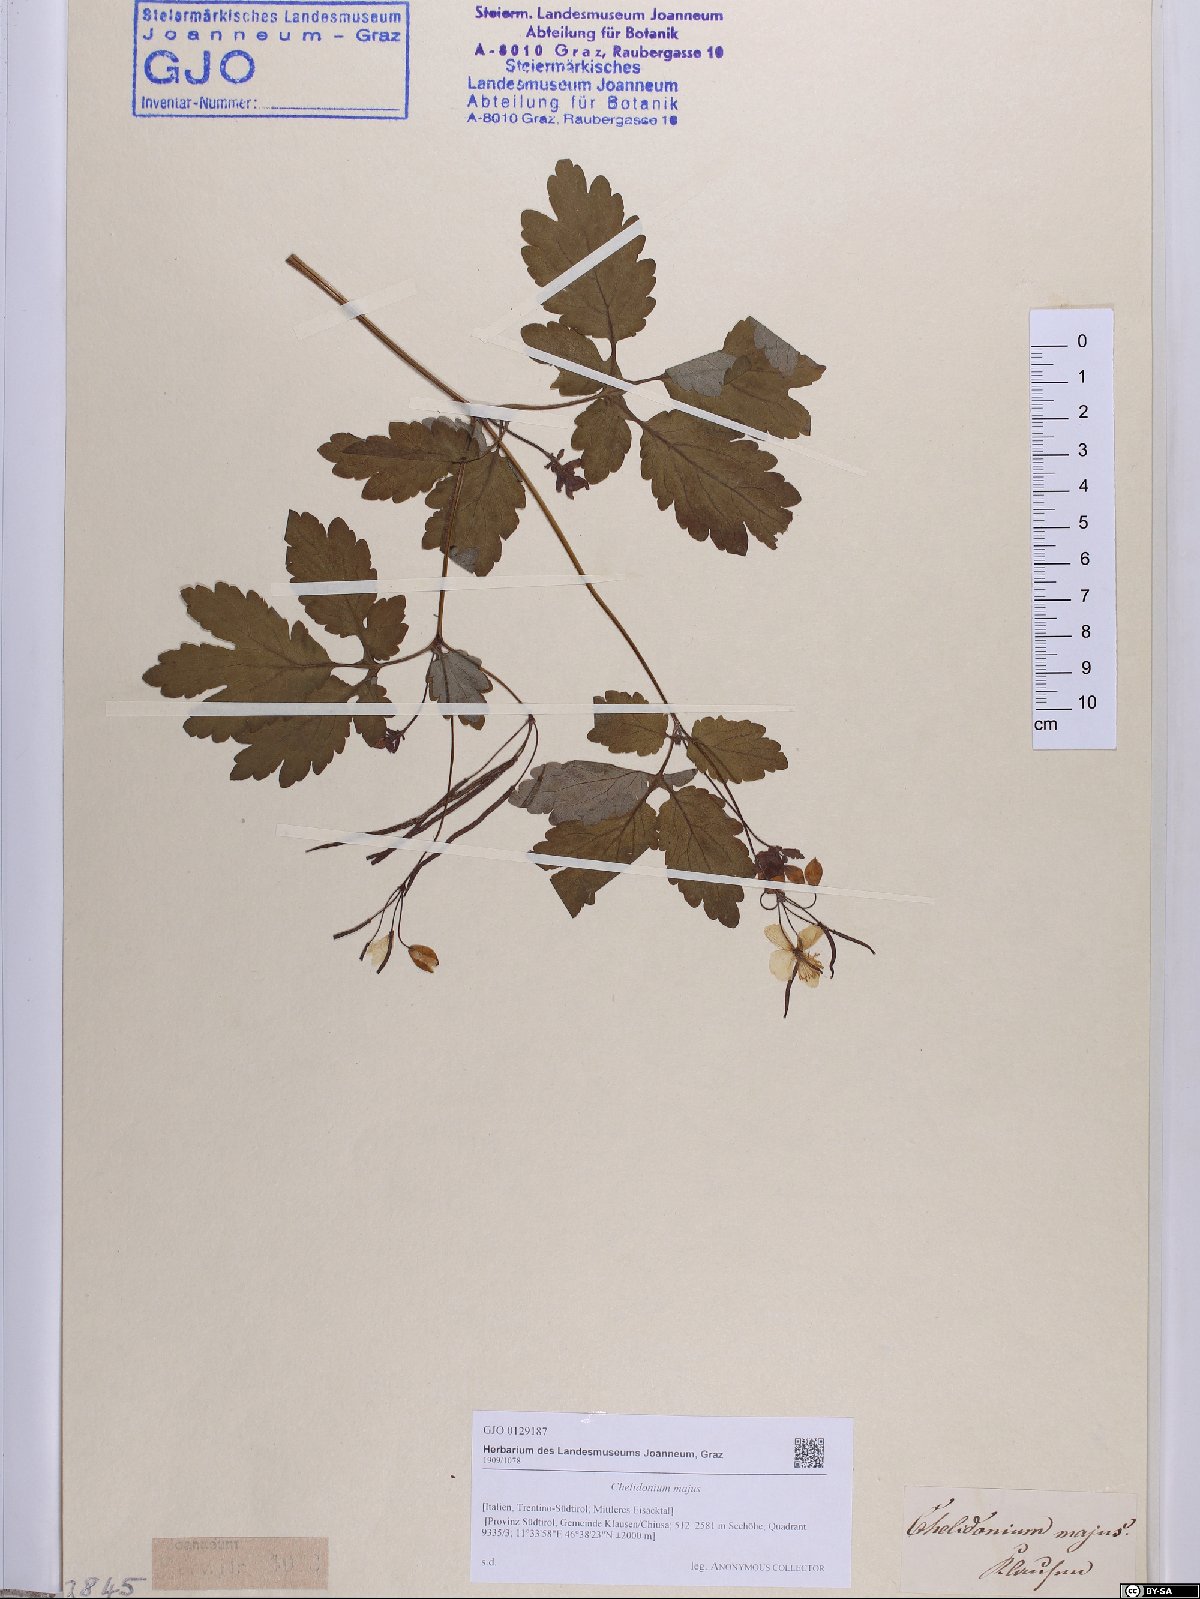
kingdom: Plantae
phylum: Tracheophyta
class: Magnoliopsida
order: Ranunculales
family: Papaveraceae
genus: Chelidonium
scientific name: Chelidonium majus
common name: Greater celandine
